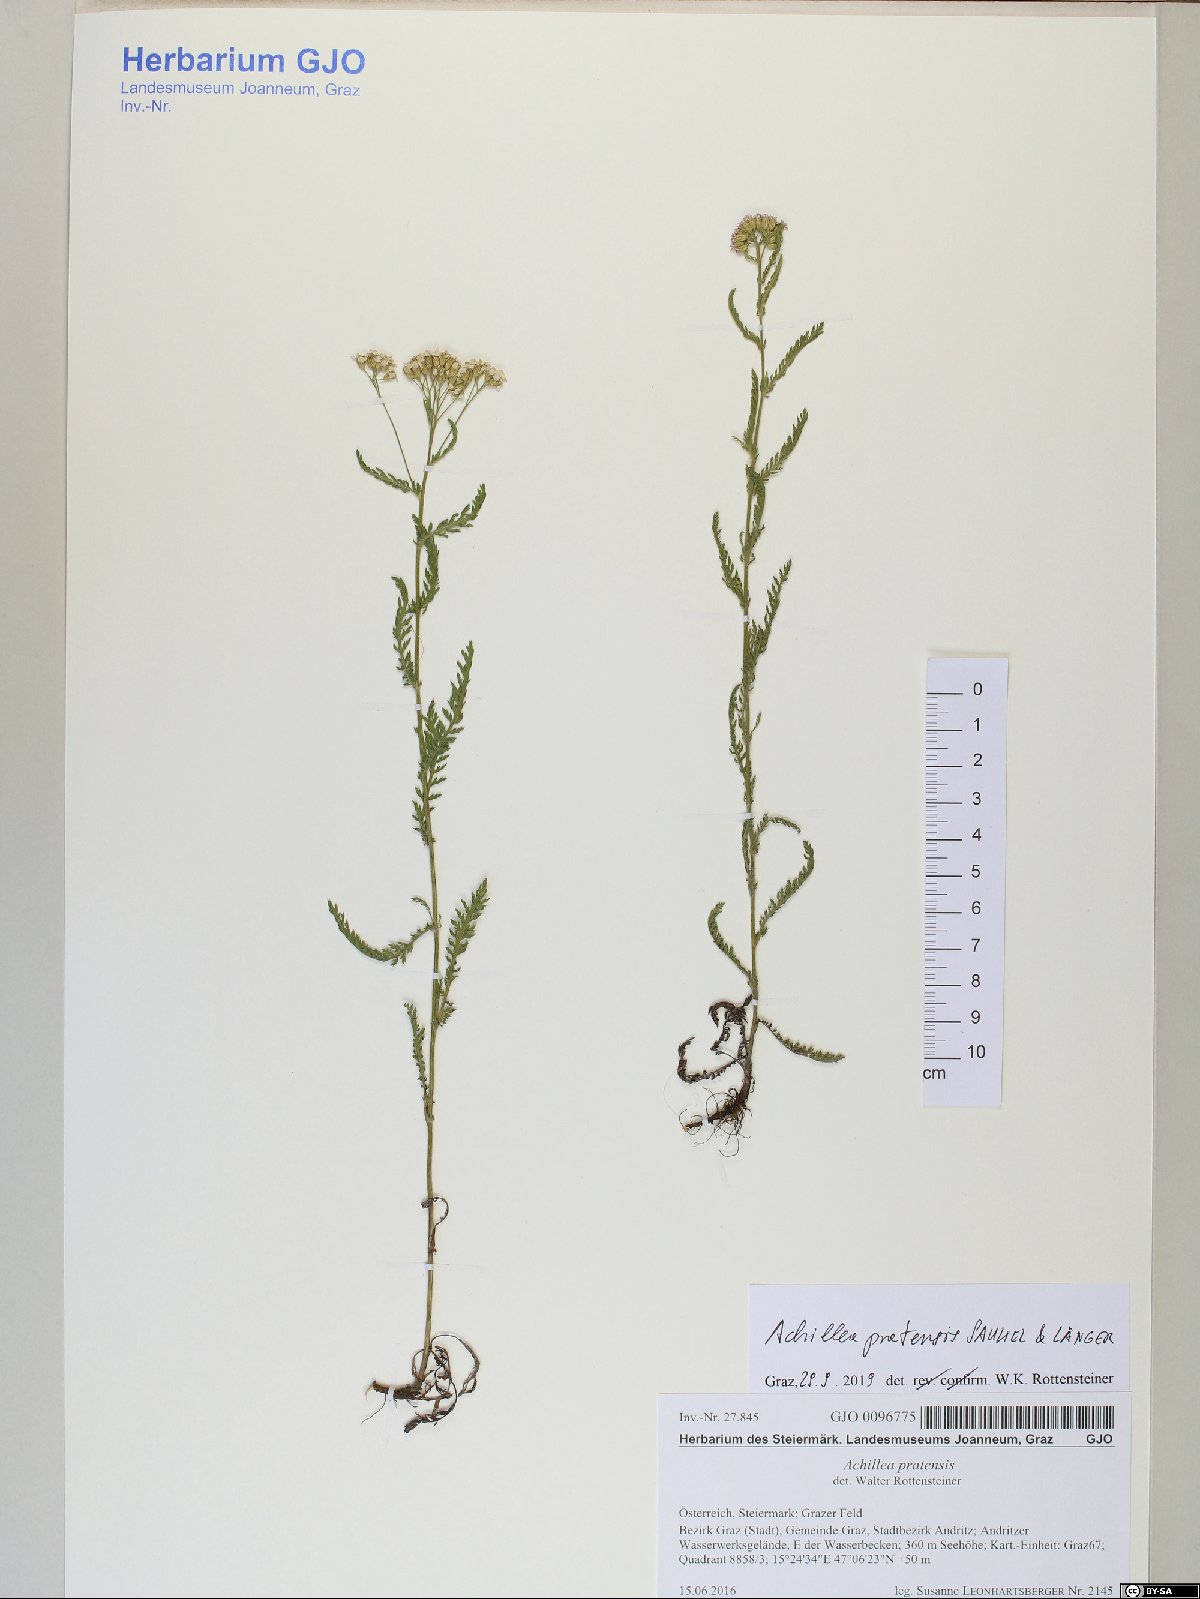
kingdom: Plantae
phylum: Tracheophyta
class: Magnoliopsida
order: Asterales
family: Asteraceae
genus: Achillea
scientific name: Achillea pratensis
